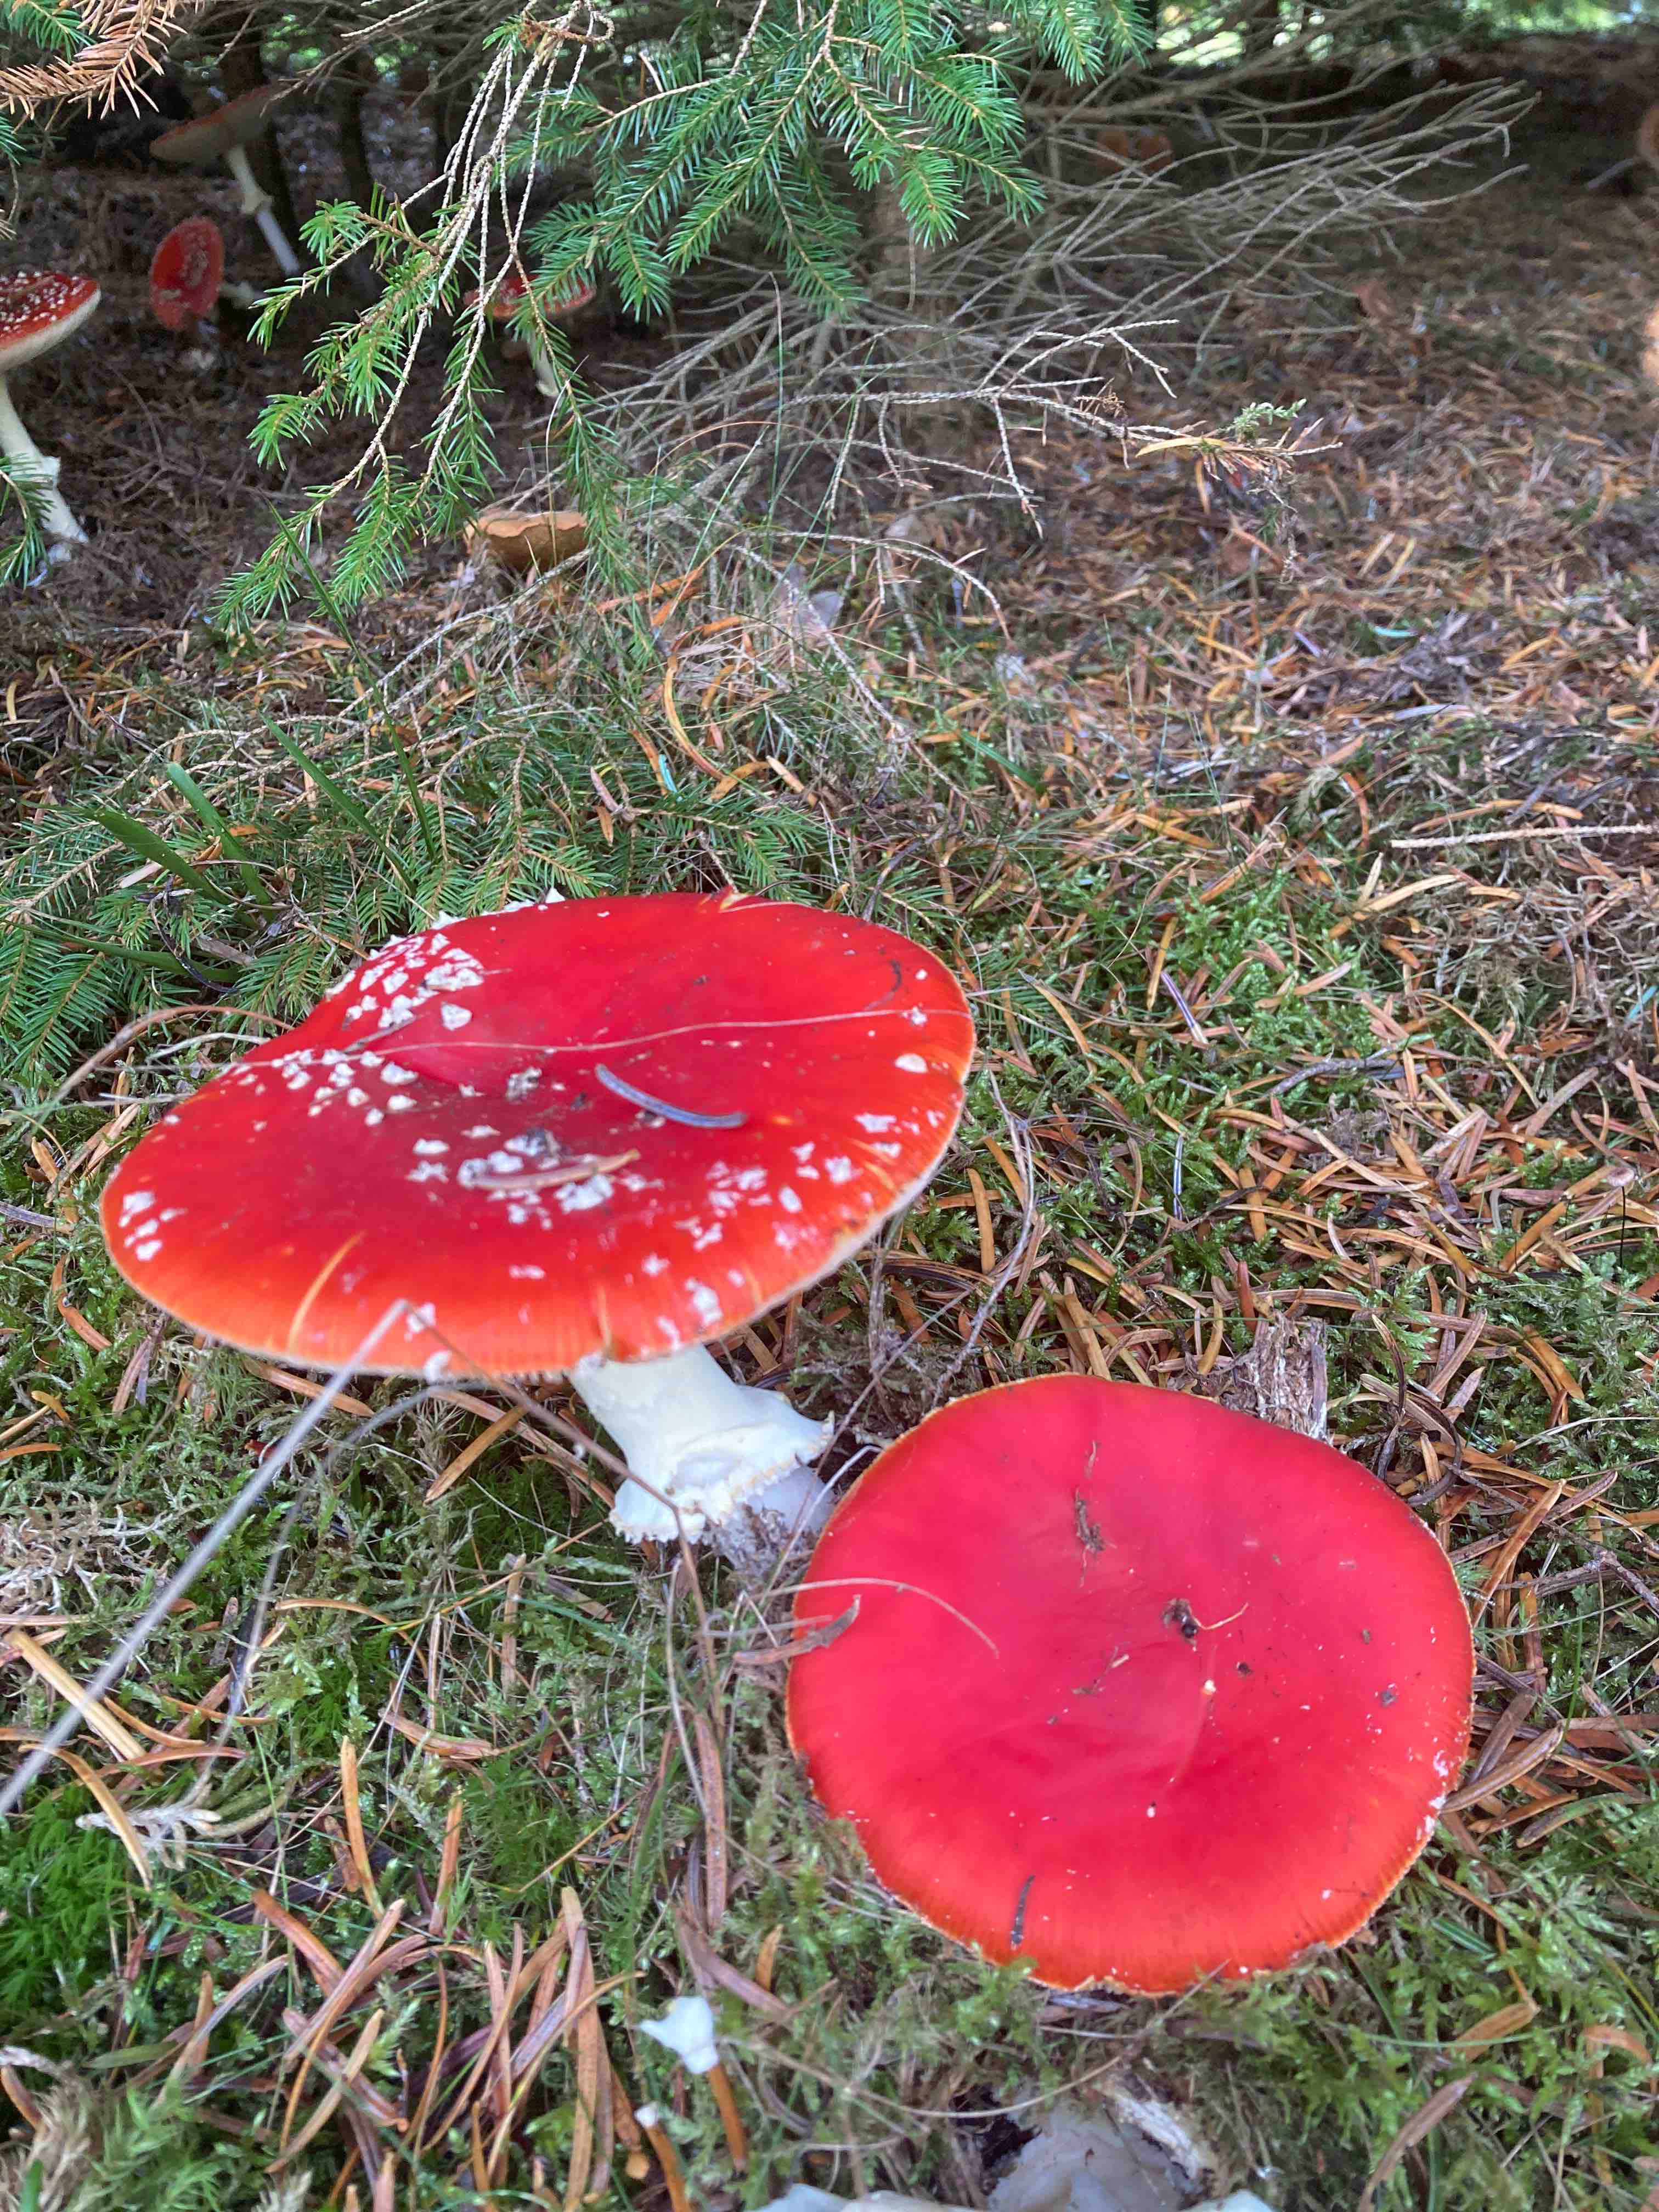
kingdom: Fungi
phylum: Basidiomycota
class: Agaricomycetes
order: Agaricales
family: Amanitaceae
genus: Amanita
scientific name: Amanita muscaria
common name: rød fluesvamp
